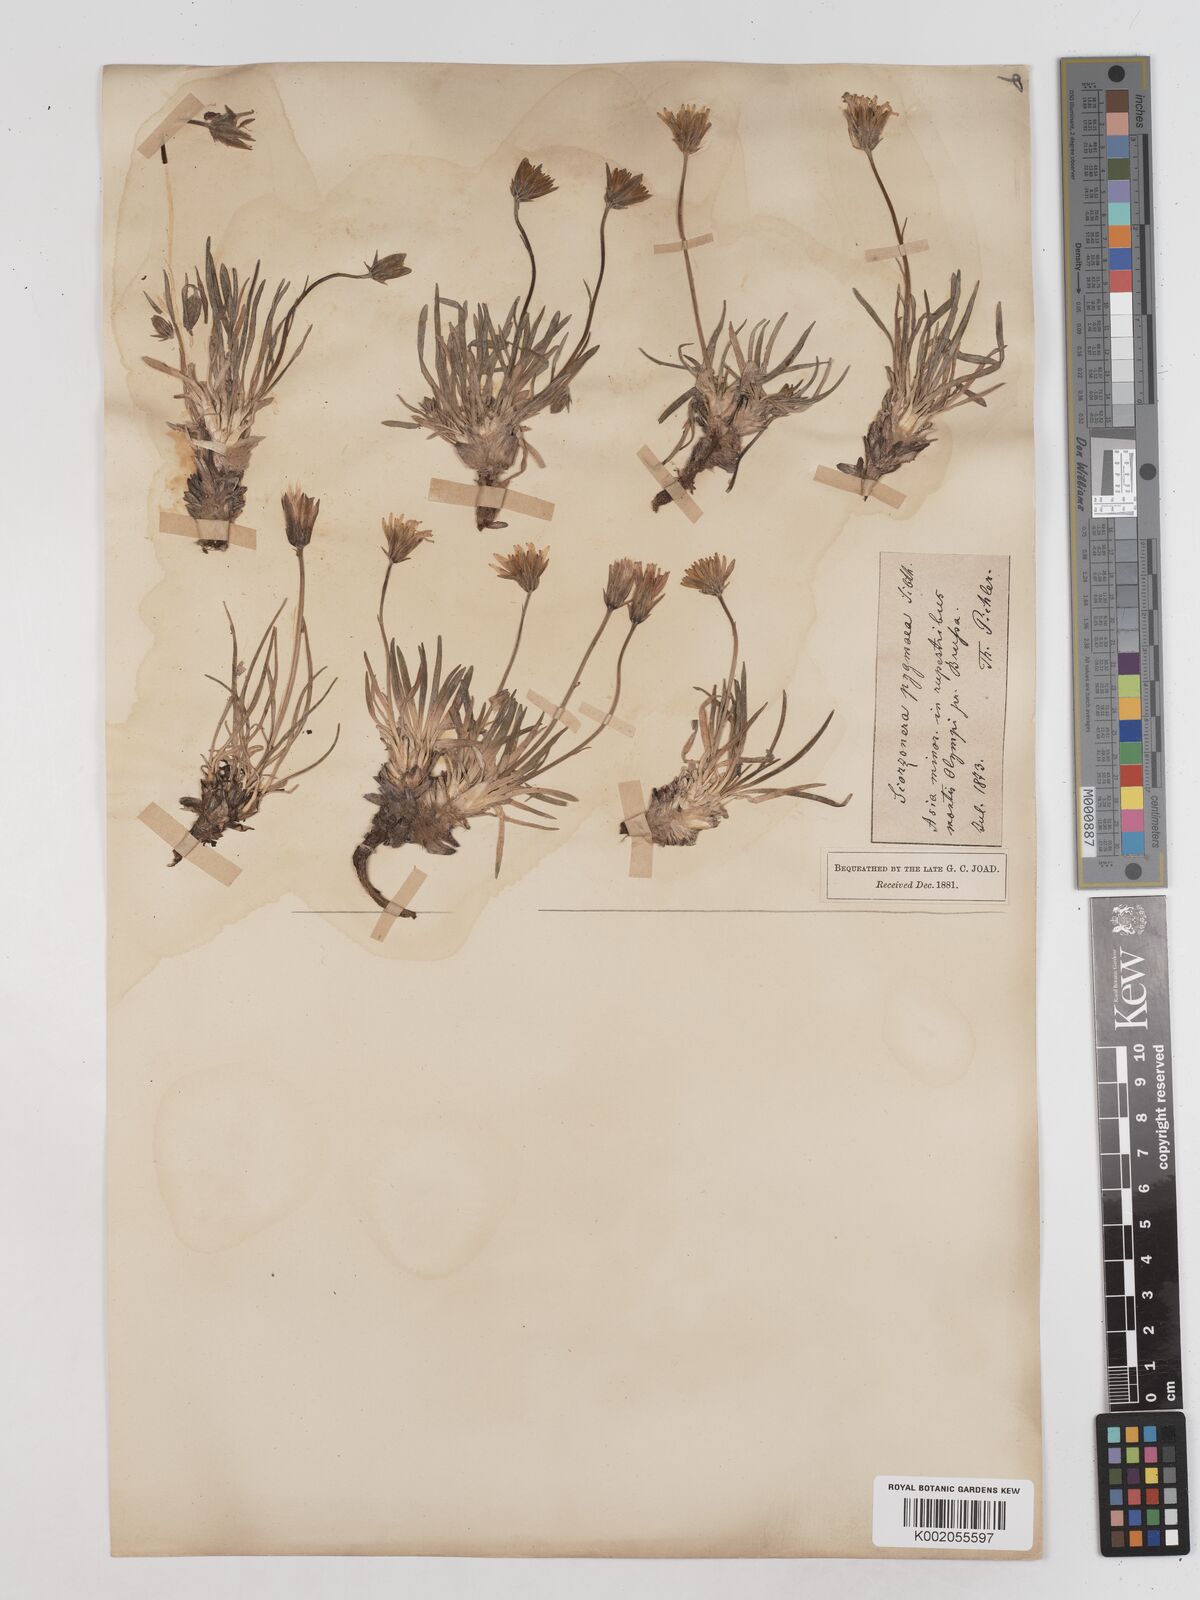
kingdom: Plantae
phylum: Tracheophyta
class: Magnoliopsida
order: Asterales
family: Asteraceae
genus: Scorzonera
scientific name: Scorzonera
